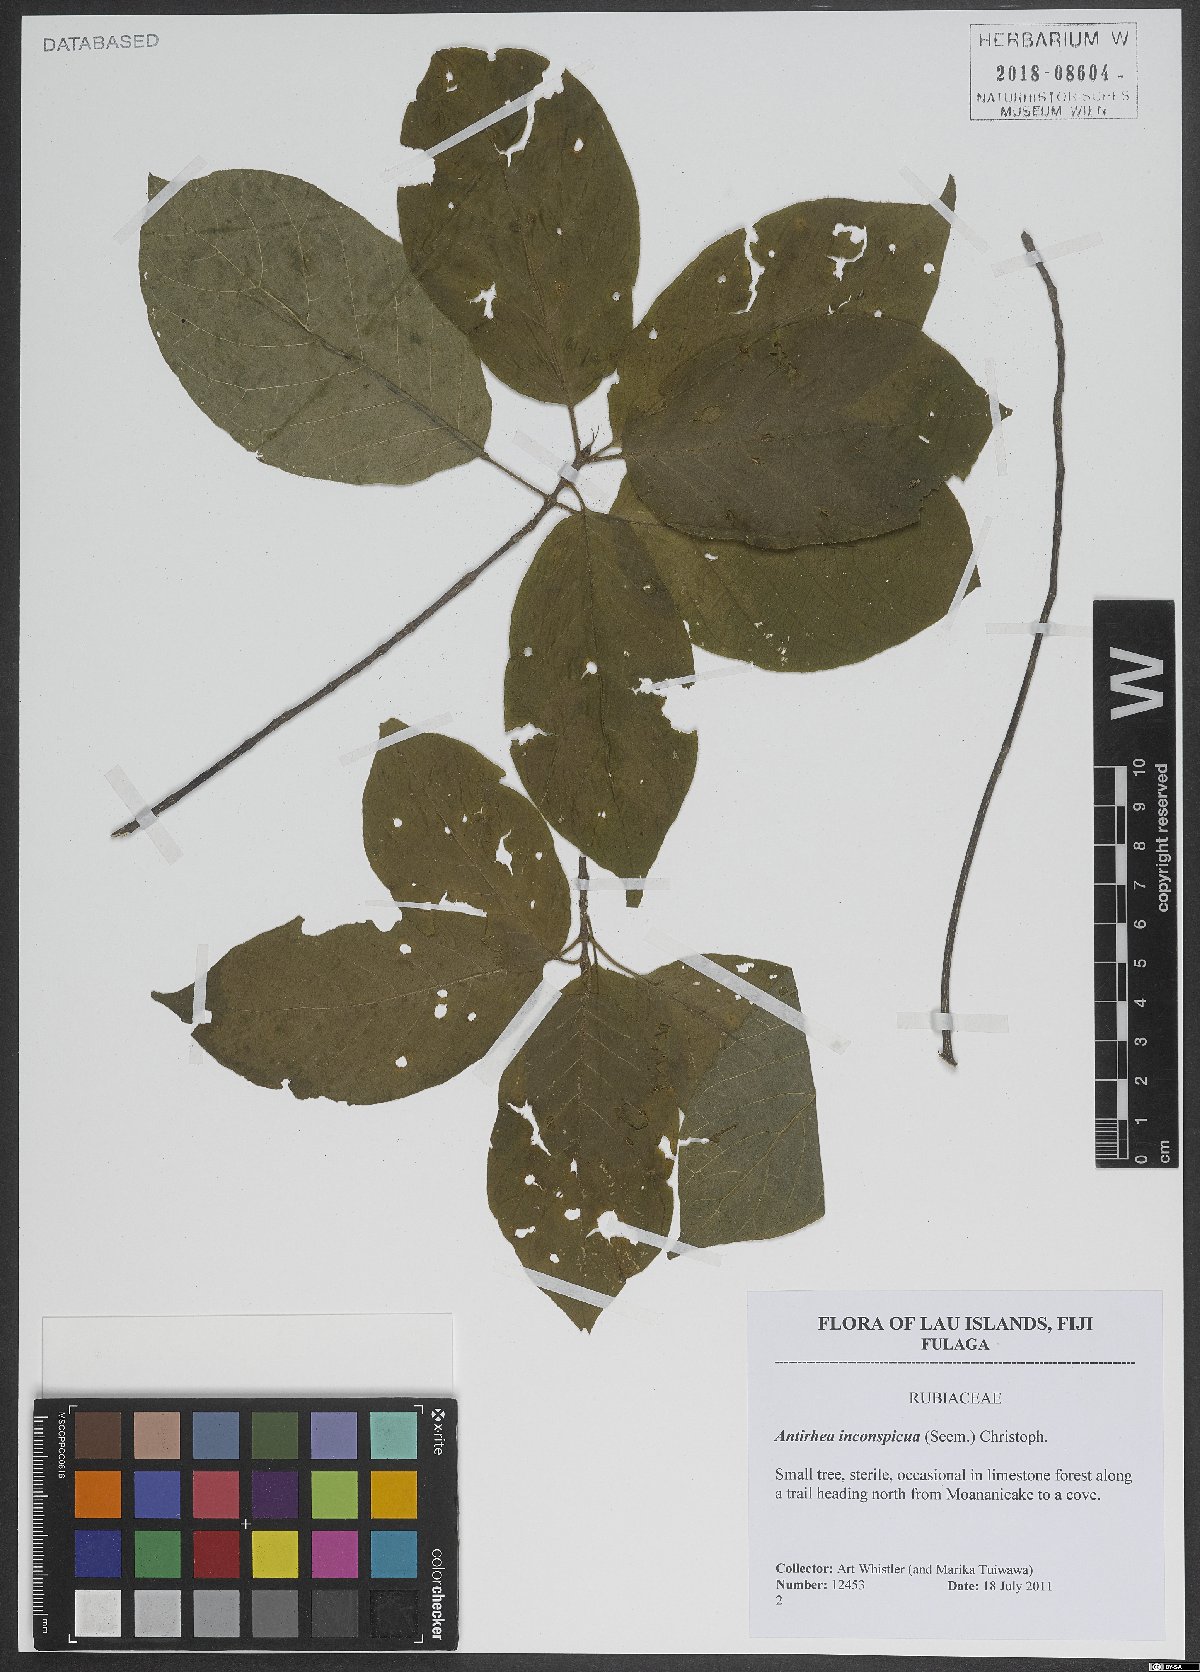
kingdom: Plantae
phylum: Tracheophyta
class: Magnoliopsida
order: Gentianales
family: Rubiaceae
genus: Guettardella
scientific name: Guettardella inconspicua
